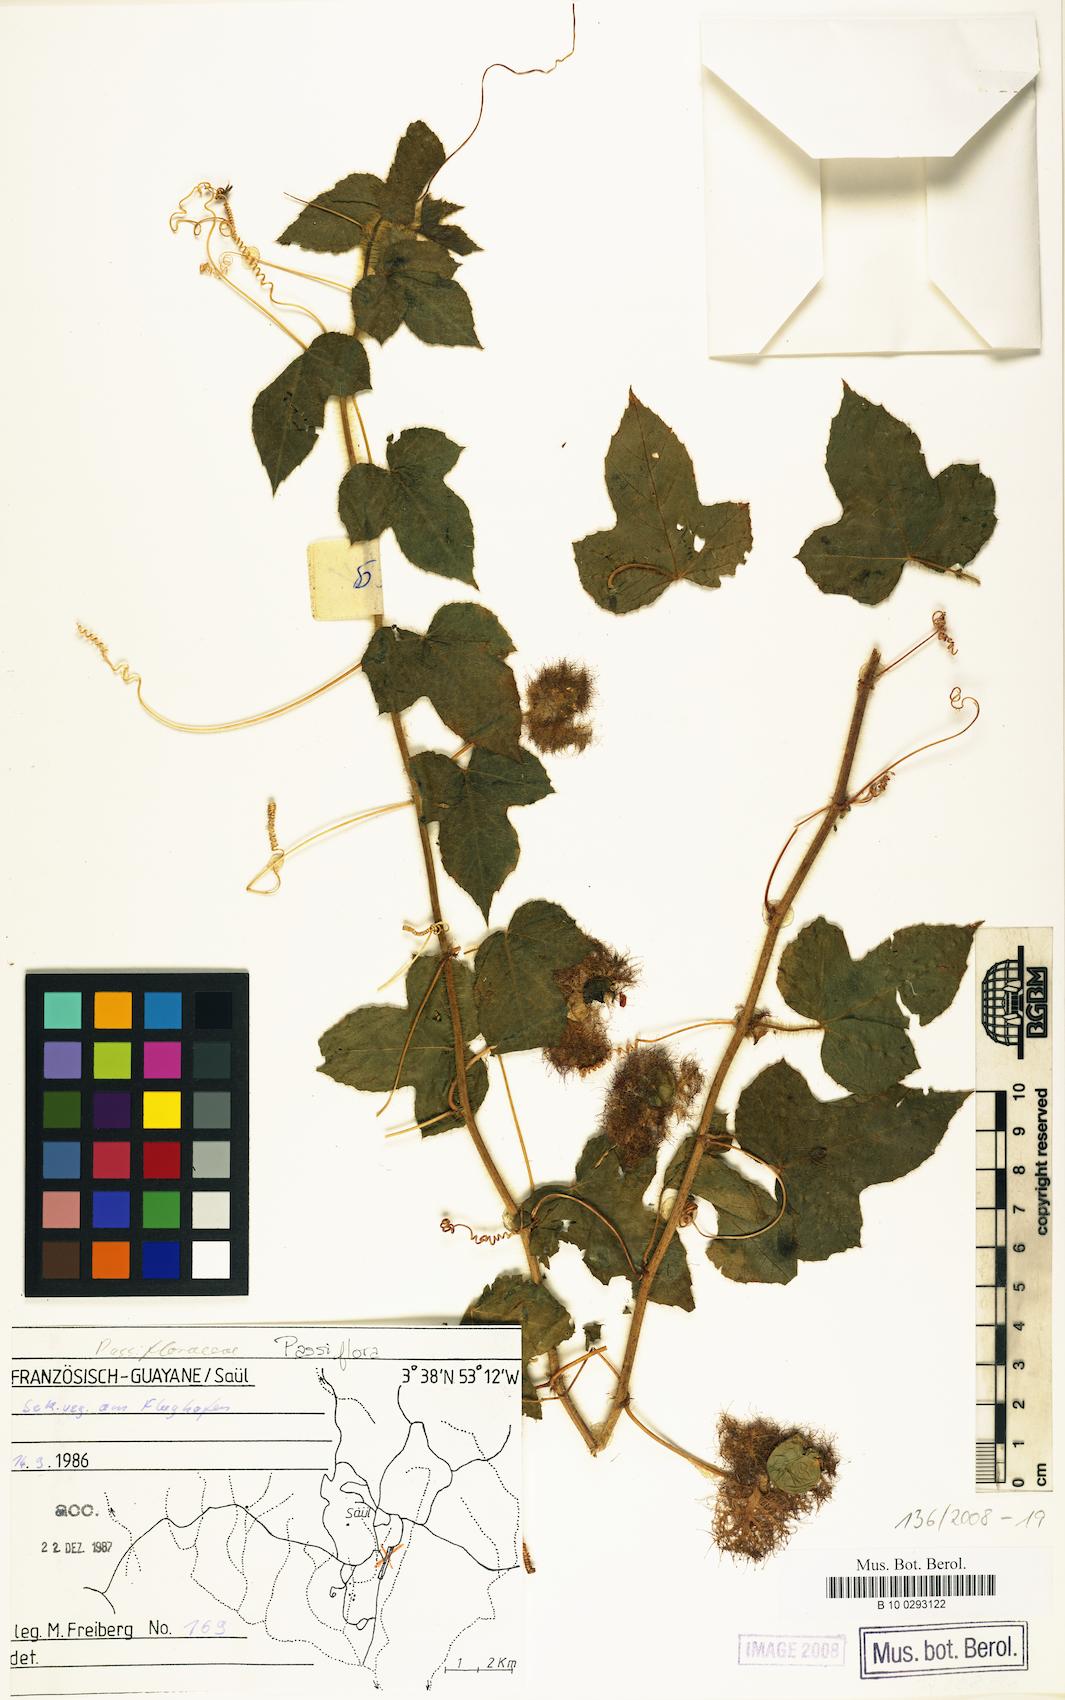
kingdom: Plantae
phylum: Tracheophyta
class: Magnoliopsida
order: Malpighiales
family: Passifloraceae
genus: Passiflora
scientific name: Passiflora vesicaria
